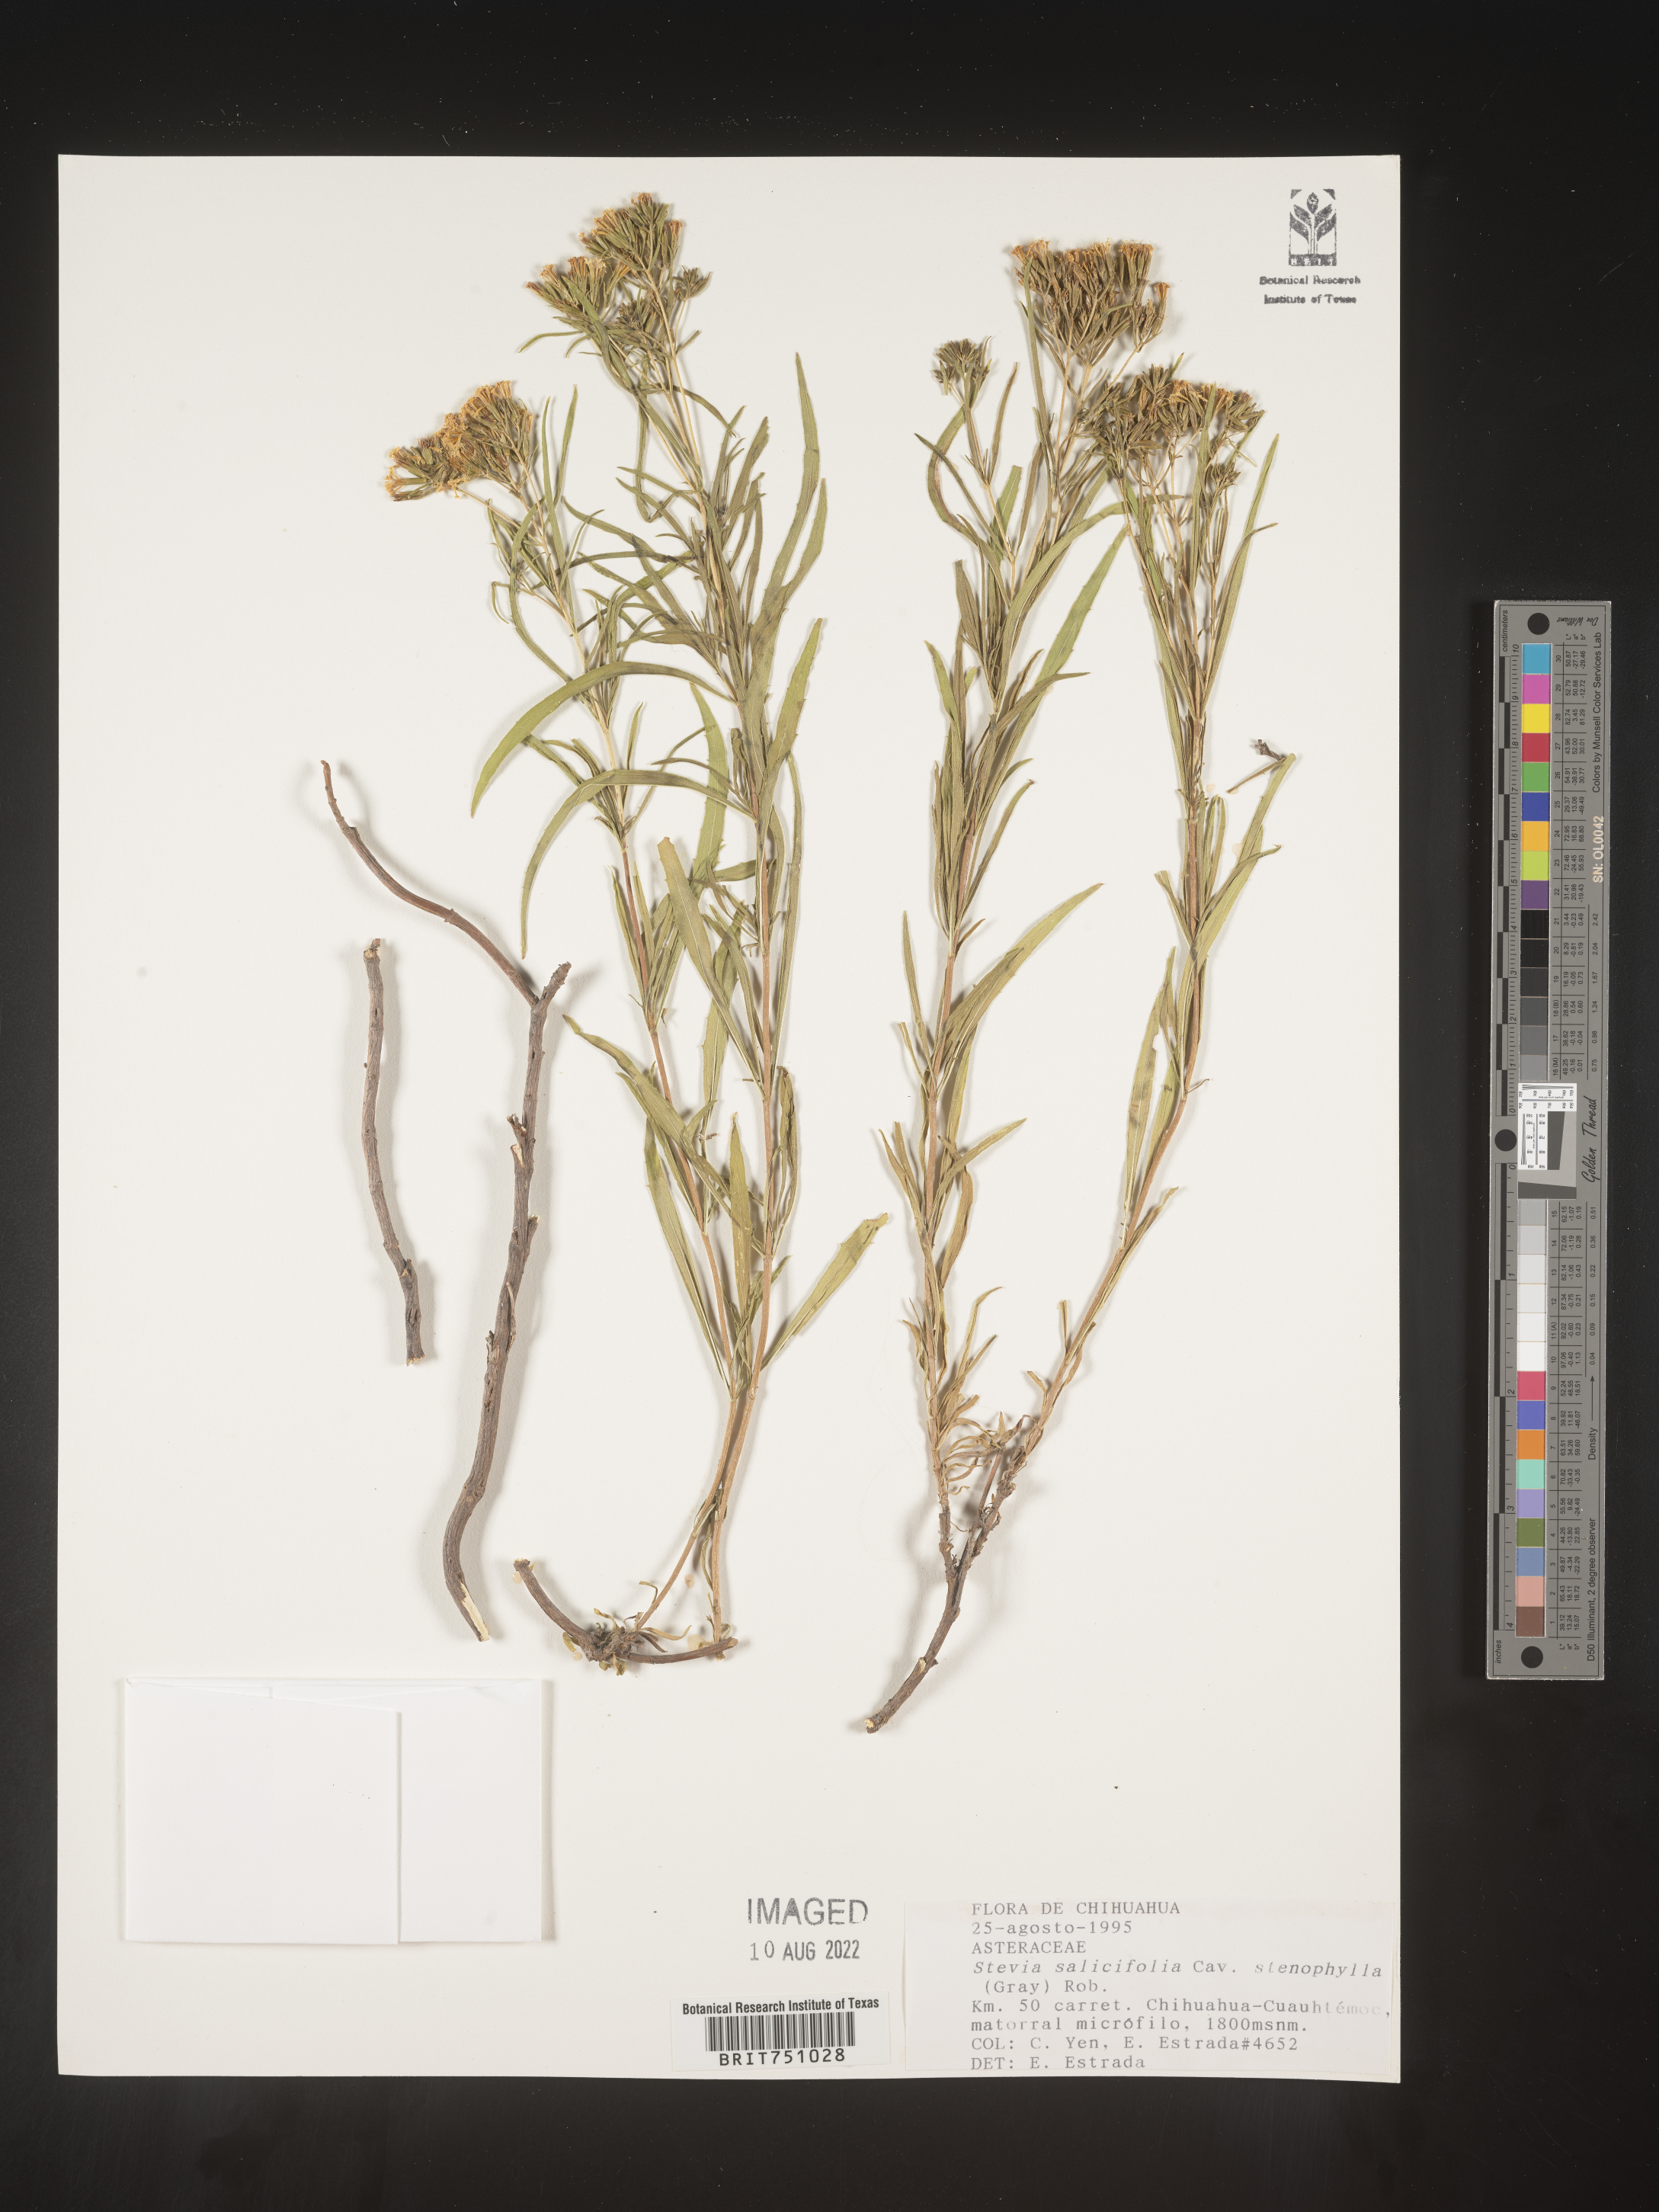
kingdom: Plantae
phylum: Tracheophyta
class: Magnoliopsida
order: Asterales
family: Asteraceae
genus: Stevia
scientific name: Stevia salicifolia
